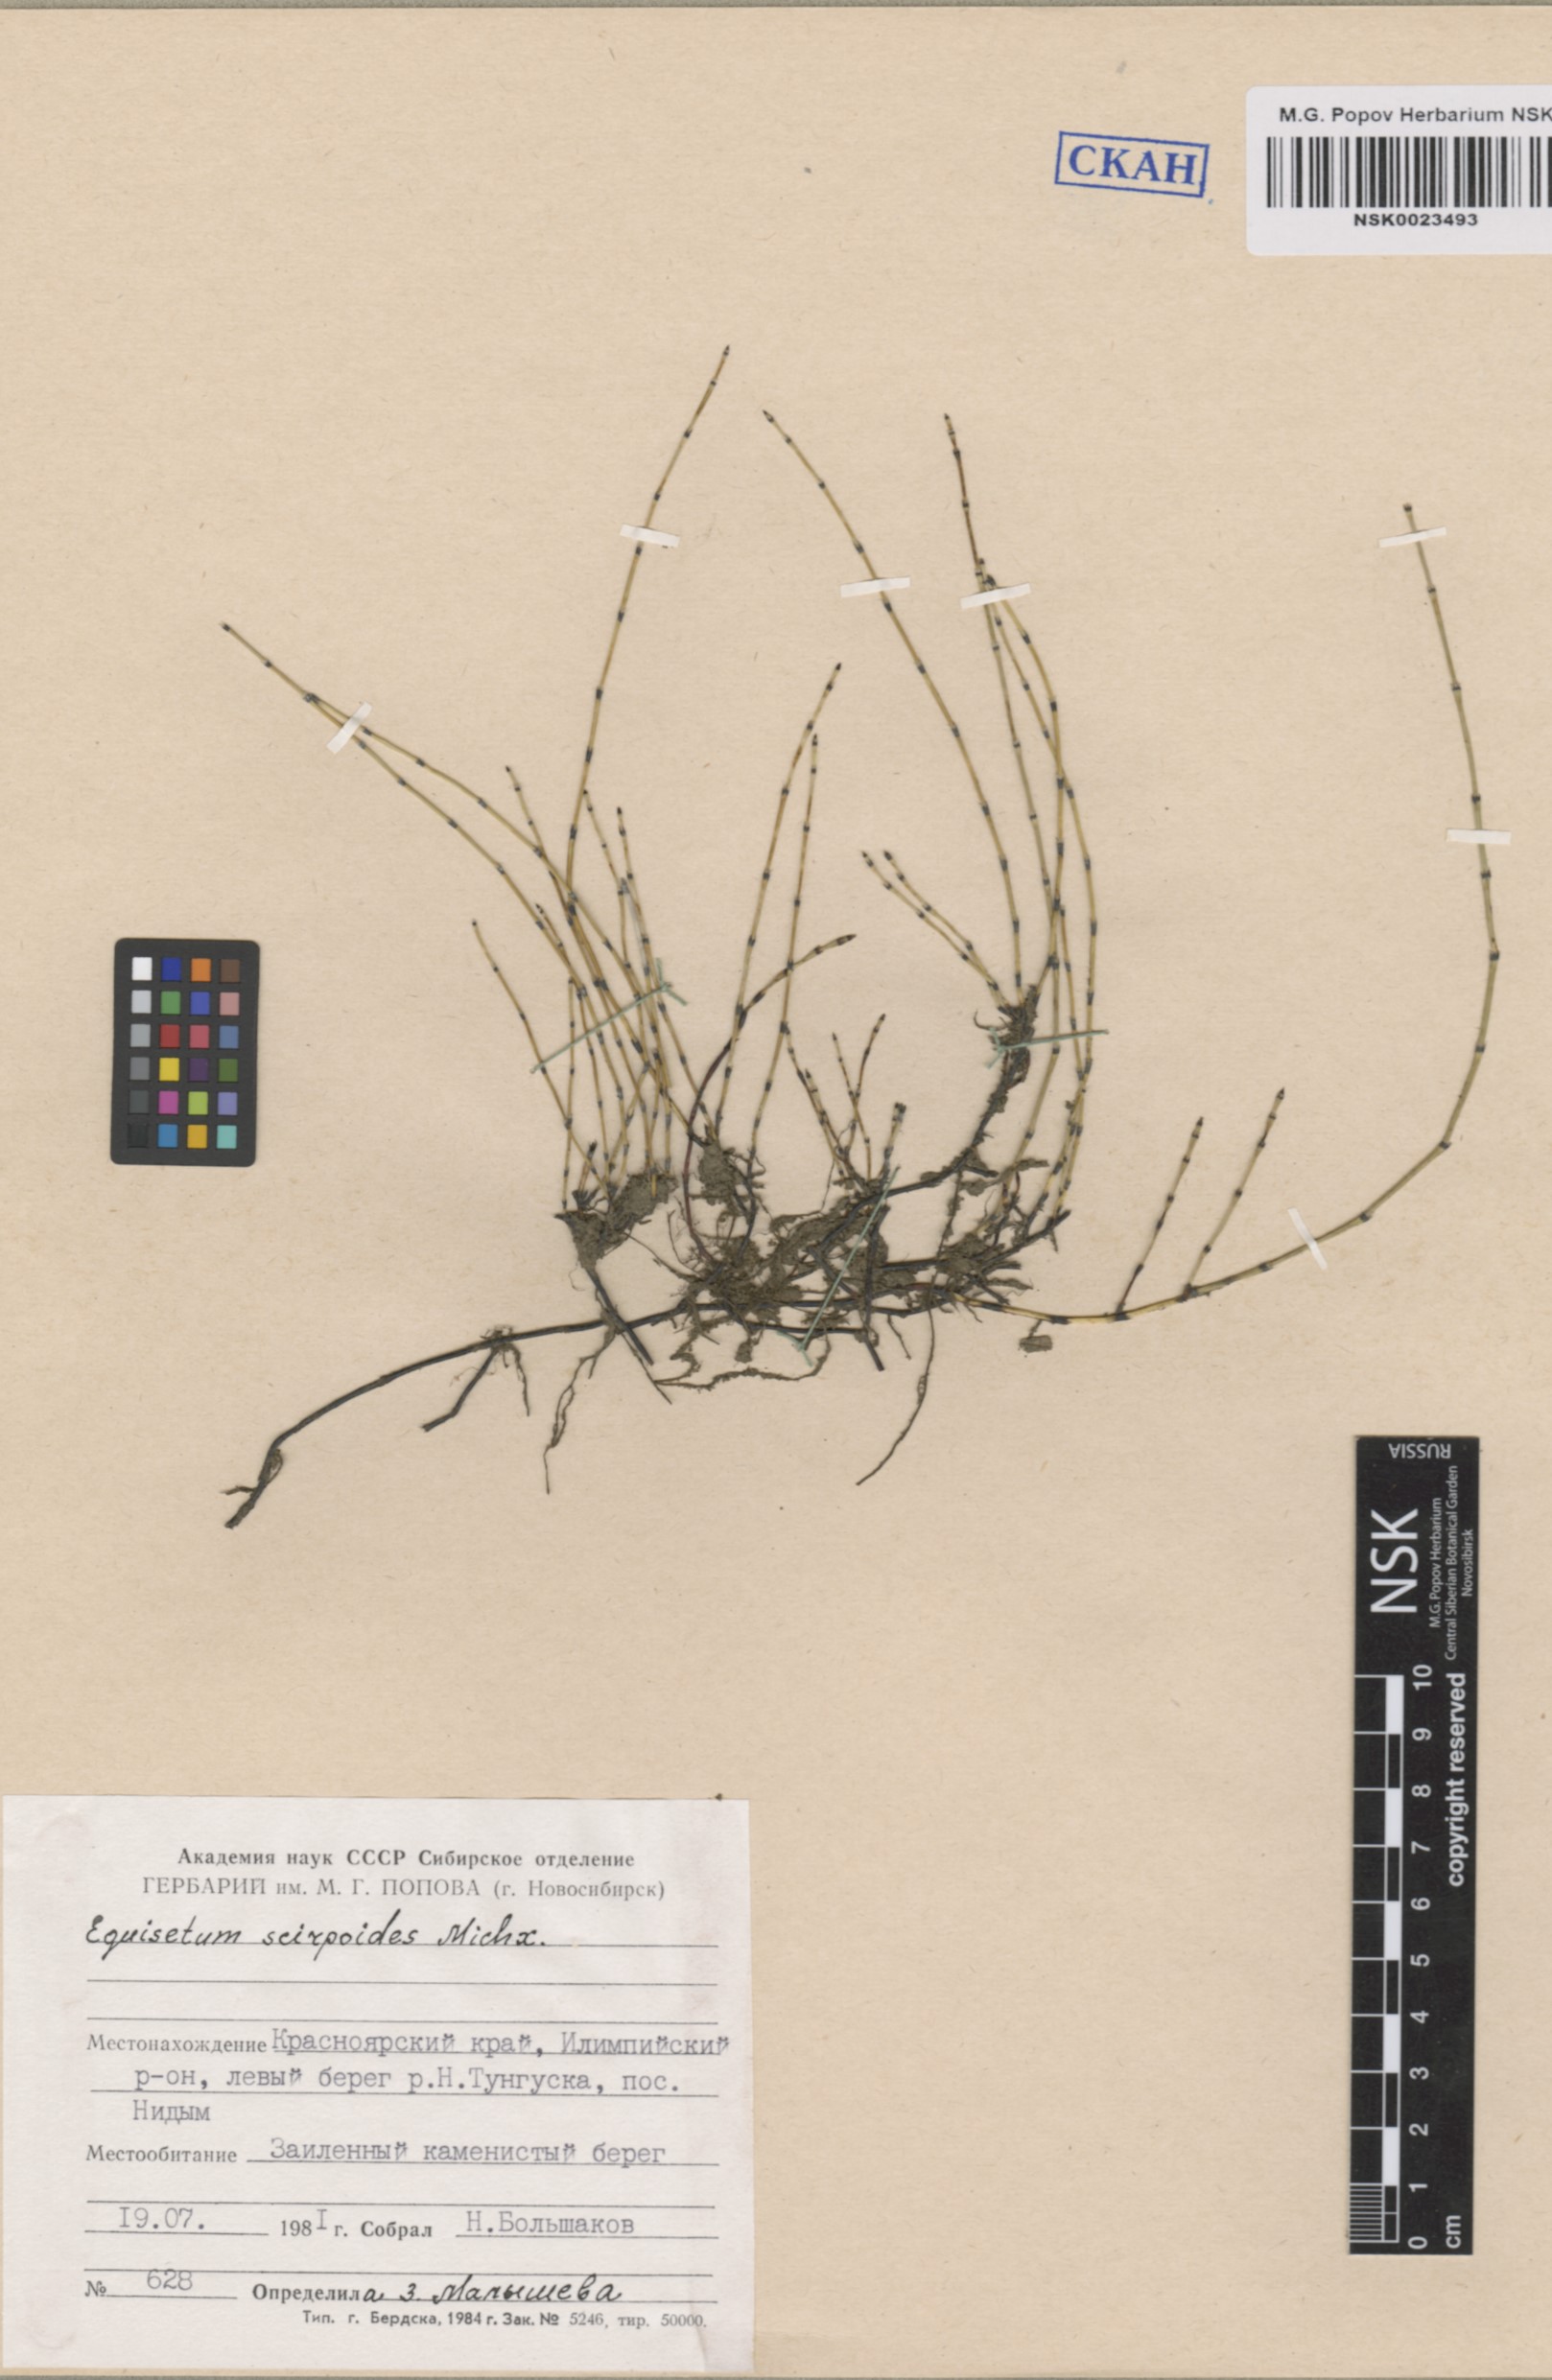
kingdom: Plantae
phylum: Tracheophyta
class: Polypodiopsida
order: Equisetales
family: Equisetaceae
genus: Equisetum
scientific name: Equisetum scirpoides
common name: Delicate horsetail
